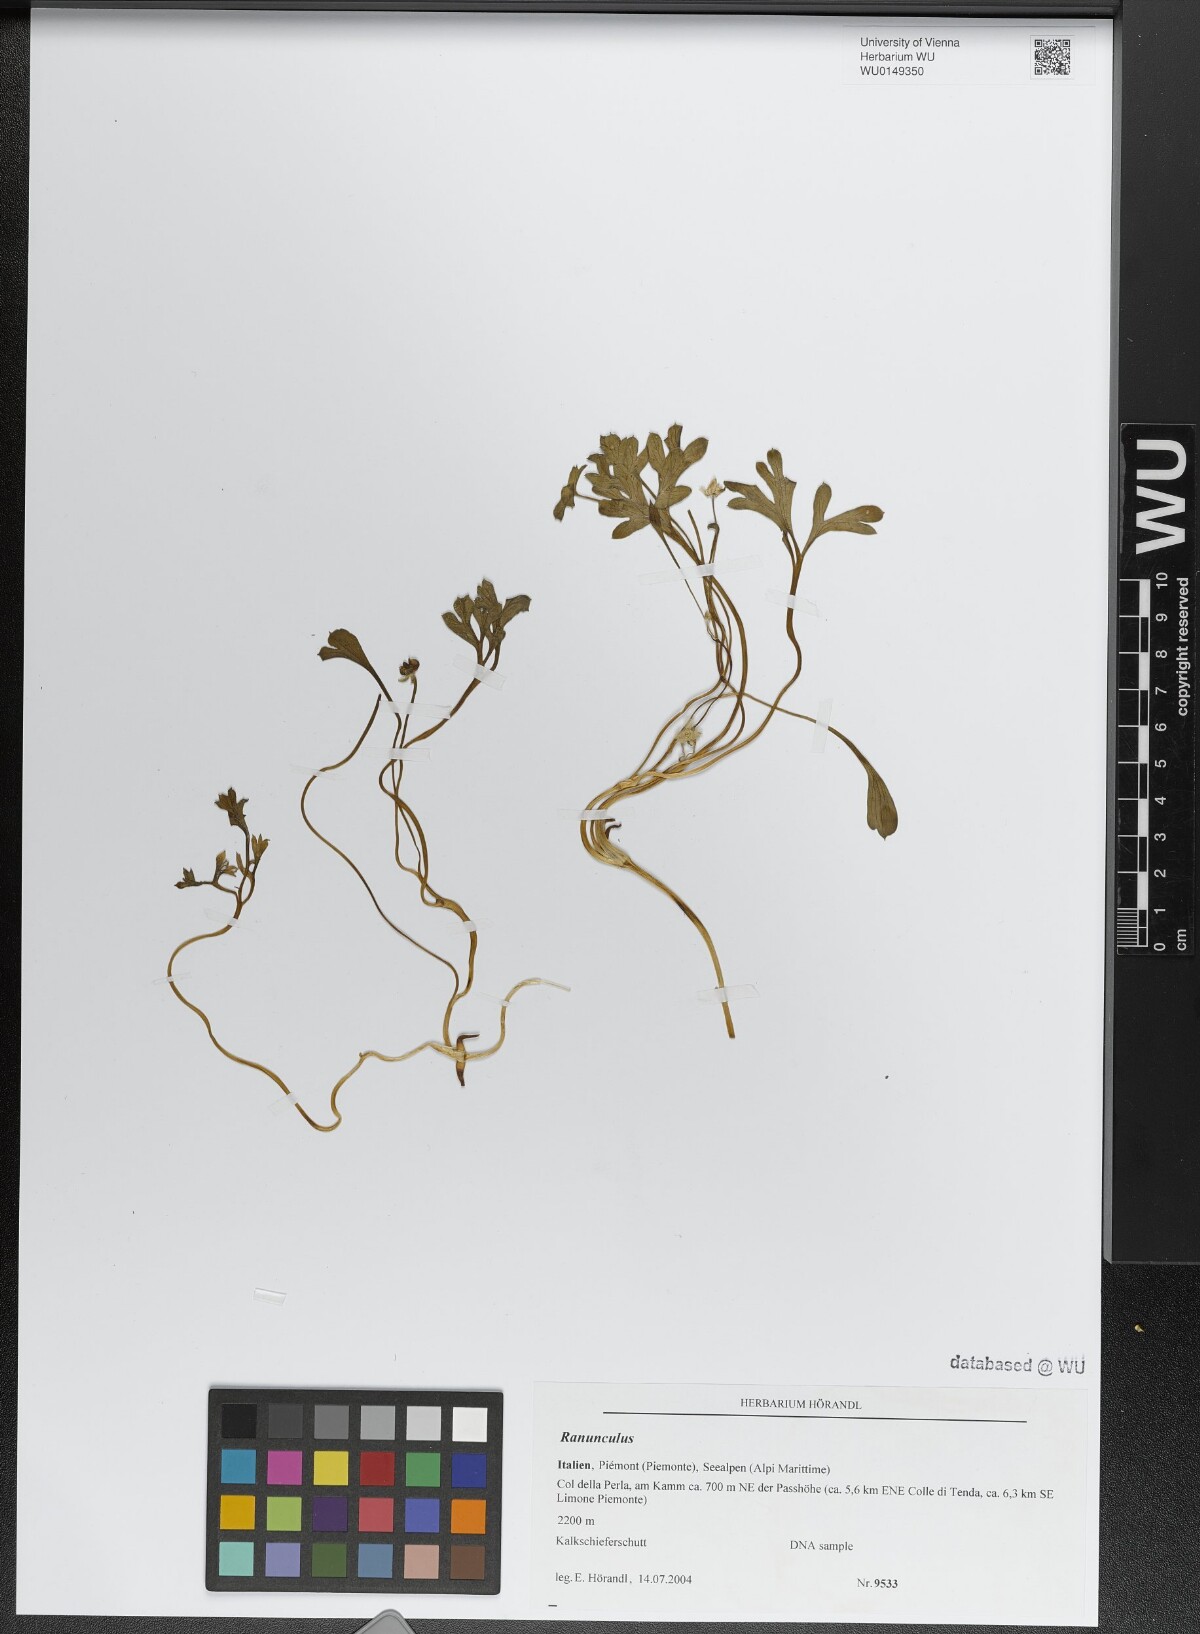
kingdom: Plantae
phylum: Tracheophyta
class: Magnoliopsida
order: Ranunculales
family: Ranunculaceae
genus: Ranunculus
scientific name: Ranunculus
